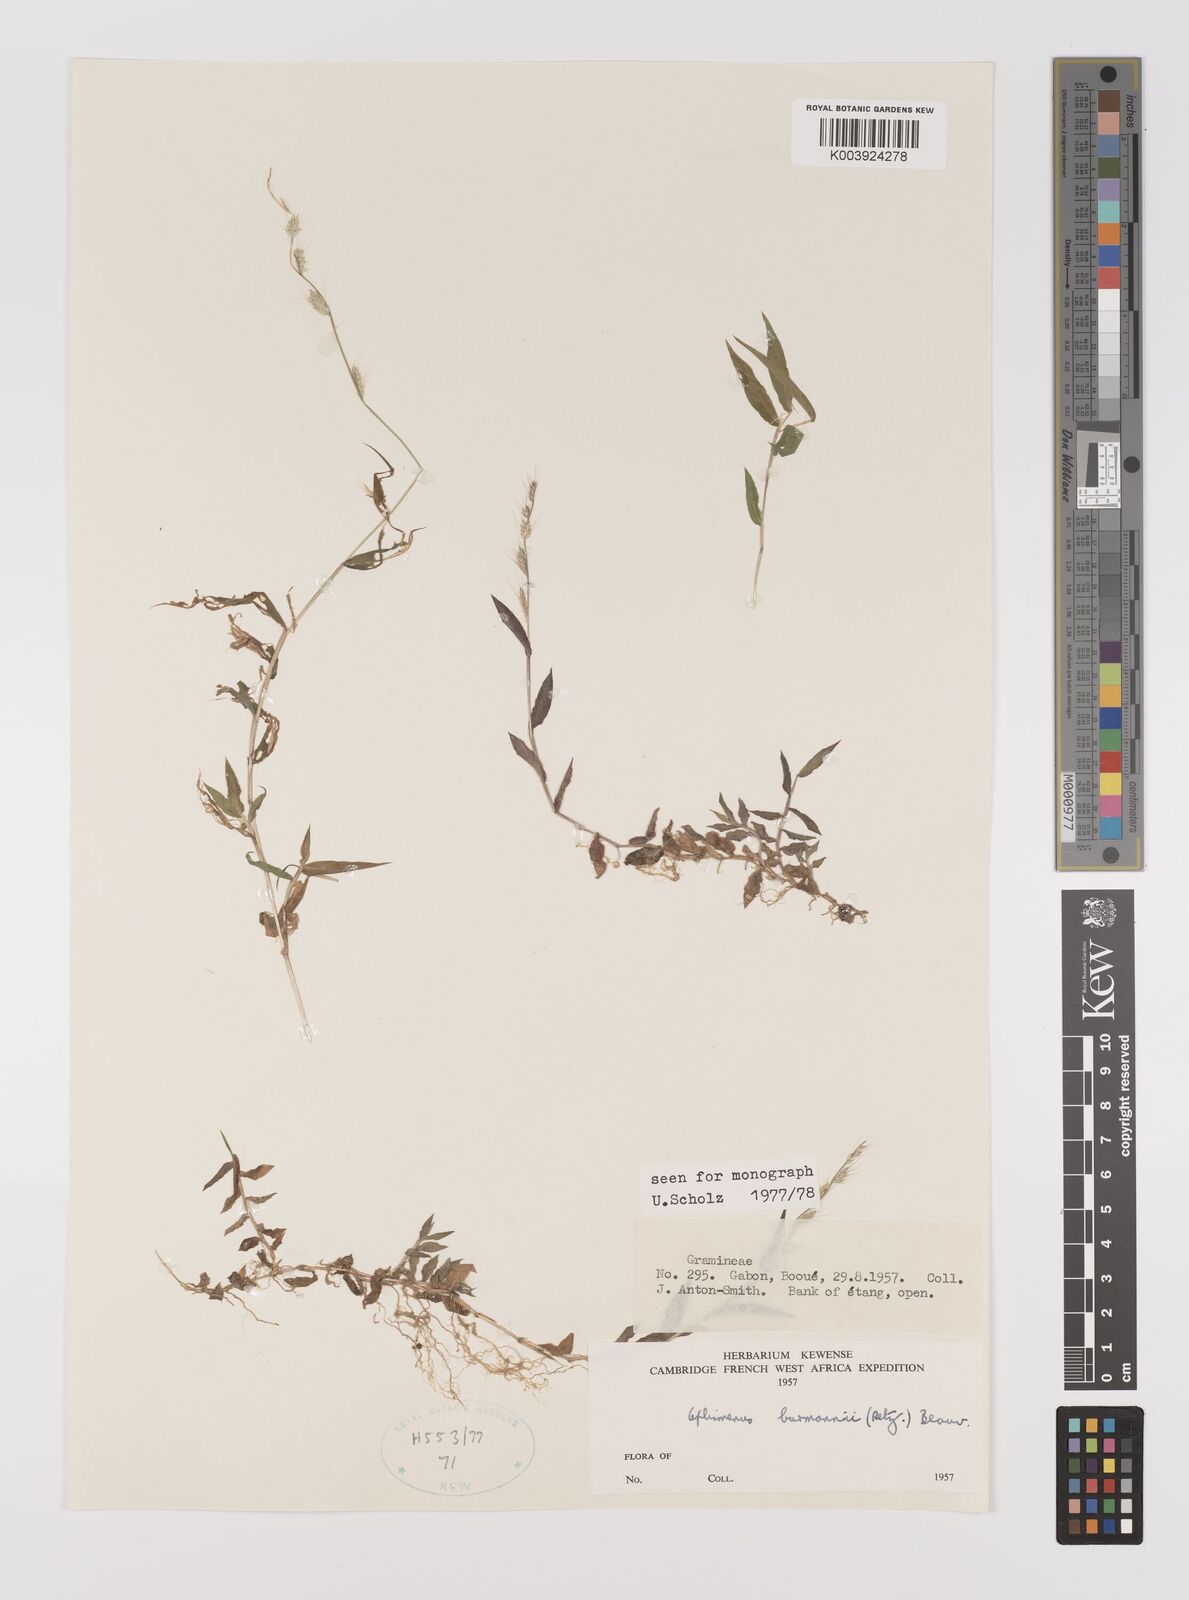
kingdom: Plantae
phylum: Tracheophyta
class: Liliopsida
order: Poales
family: Poaceae
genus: Oplismenus
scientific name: Oplismenus burmanni
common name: Burmann's basketgrass
